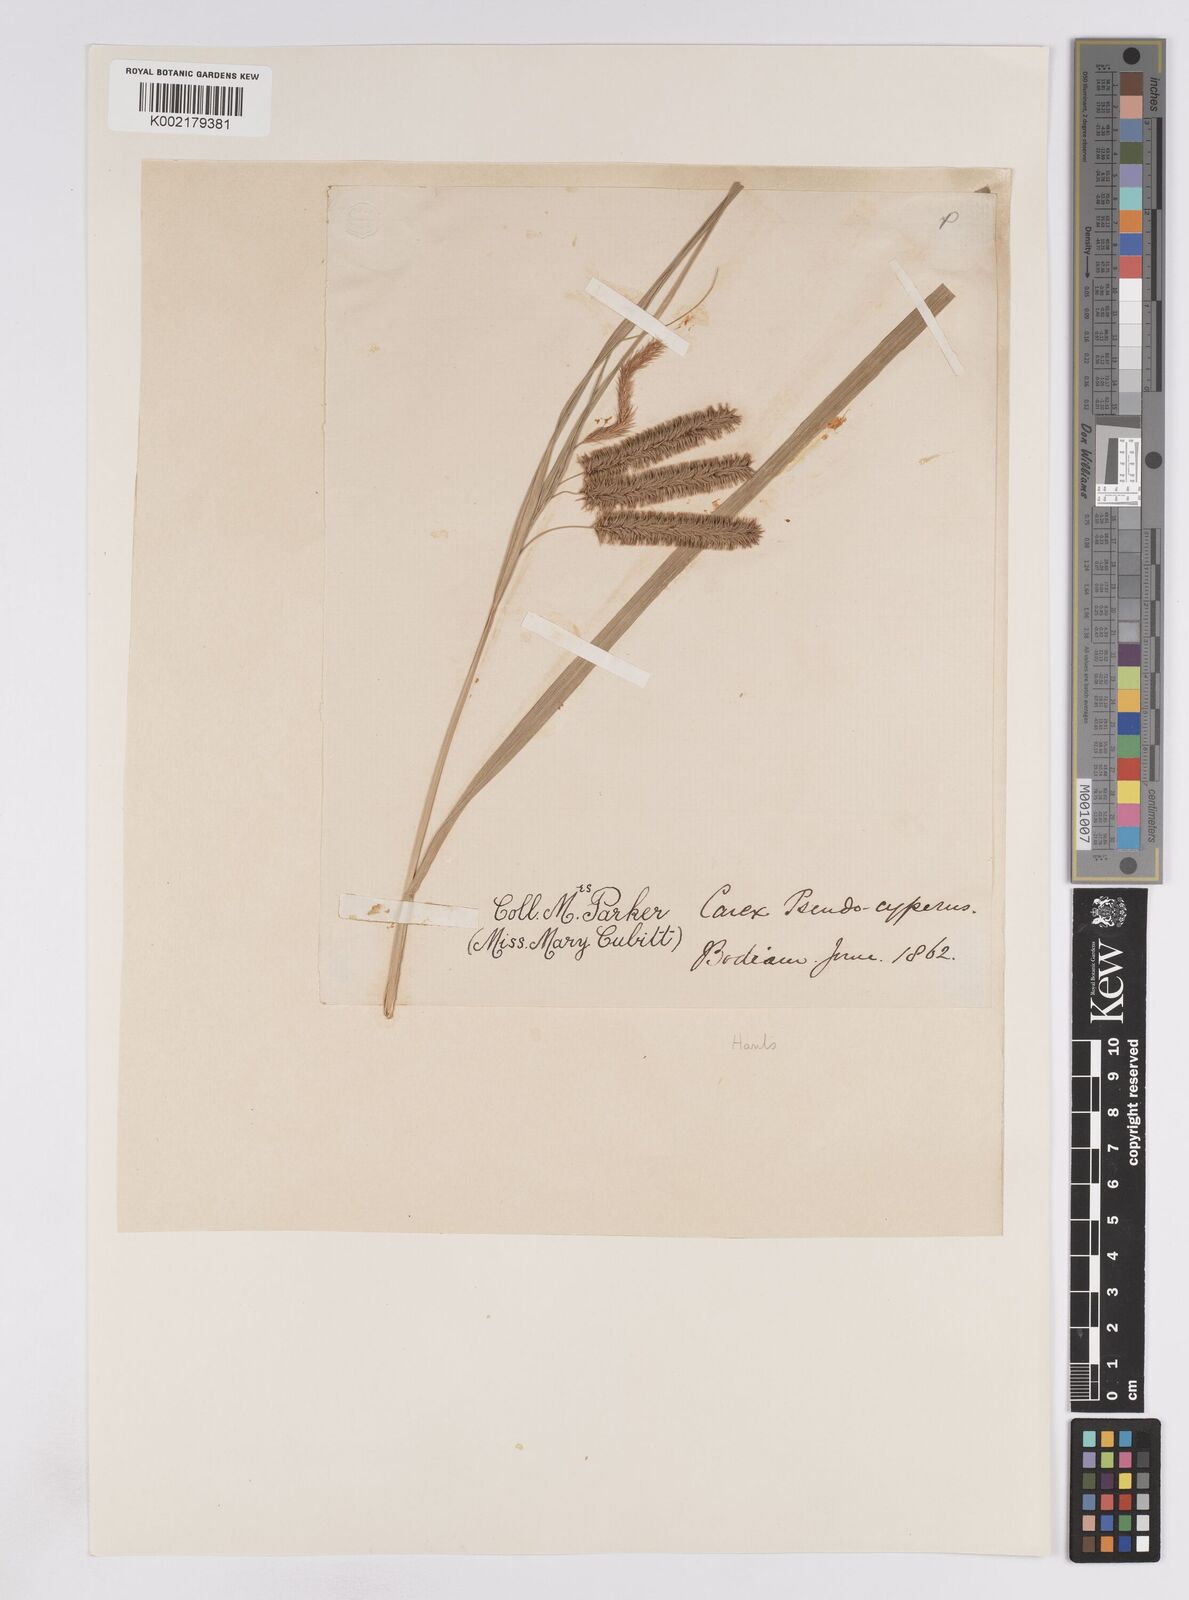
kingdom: Plantae
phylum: Tracheophyta
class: Liliopsida
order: Poales
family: Cyperaceae
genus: Carex
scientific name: Carex pseudocyperus
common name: Cyperus sedge
